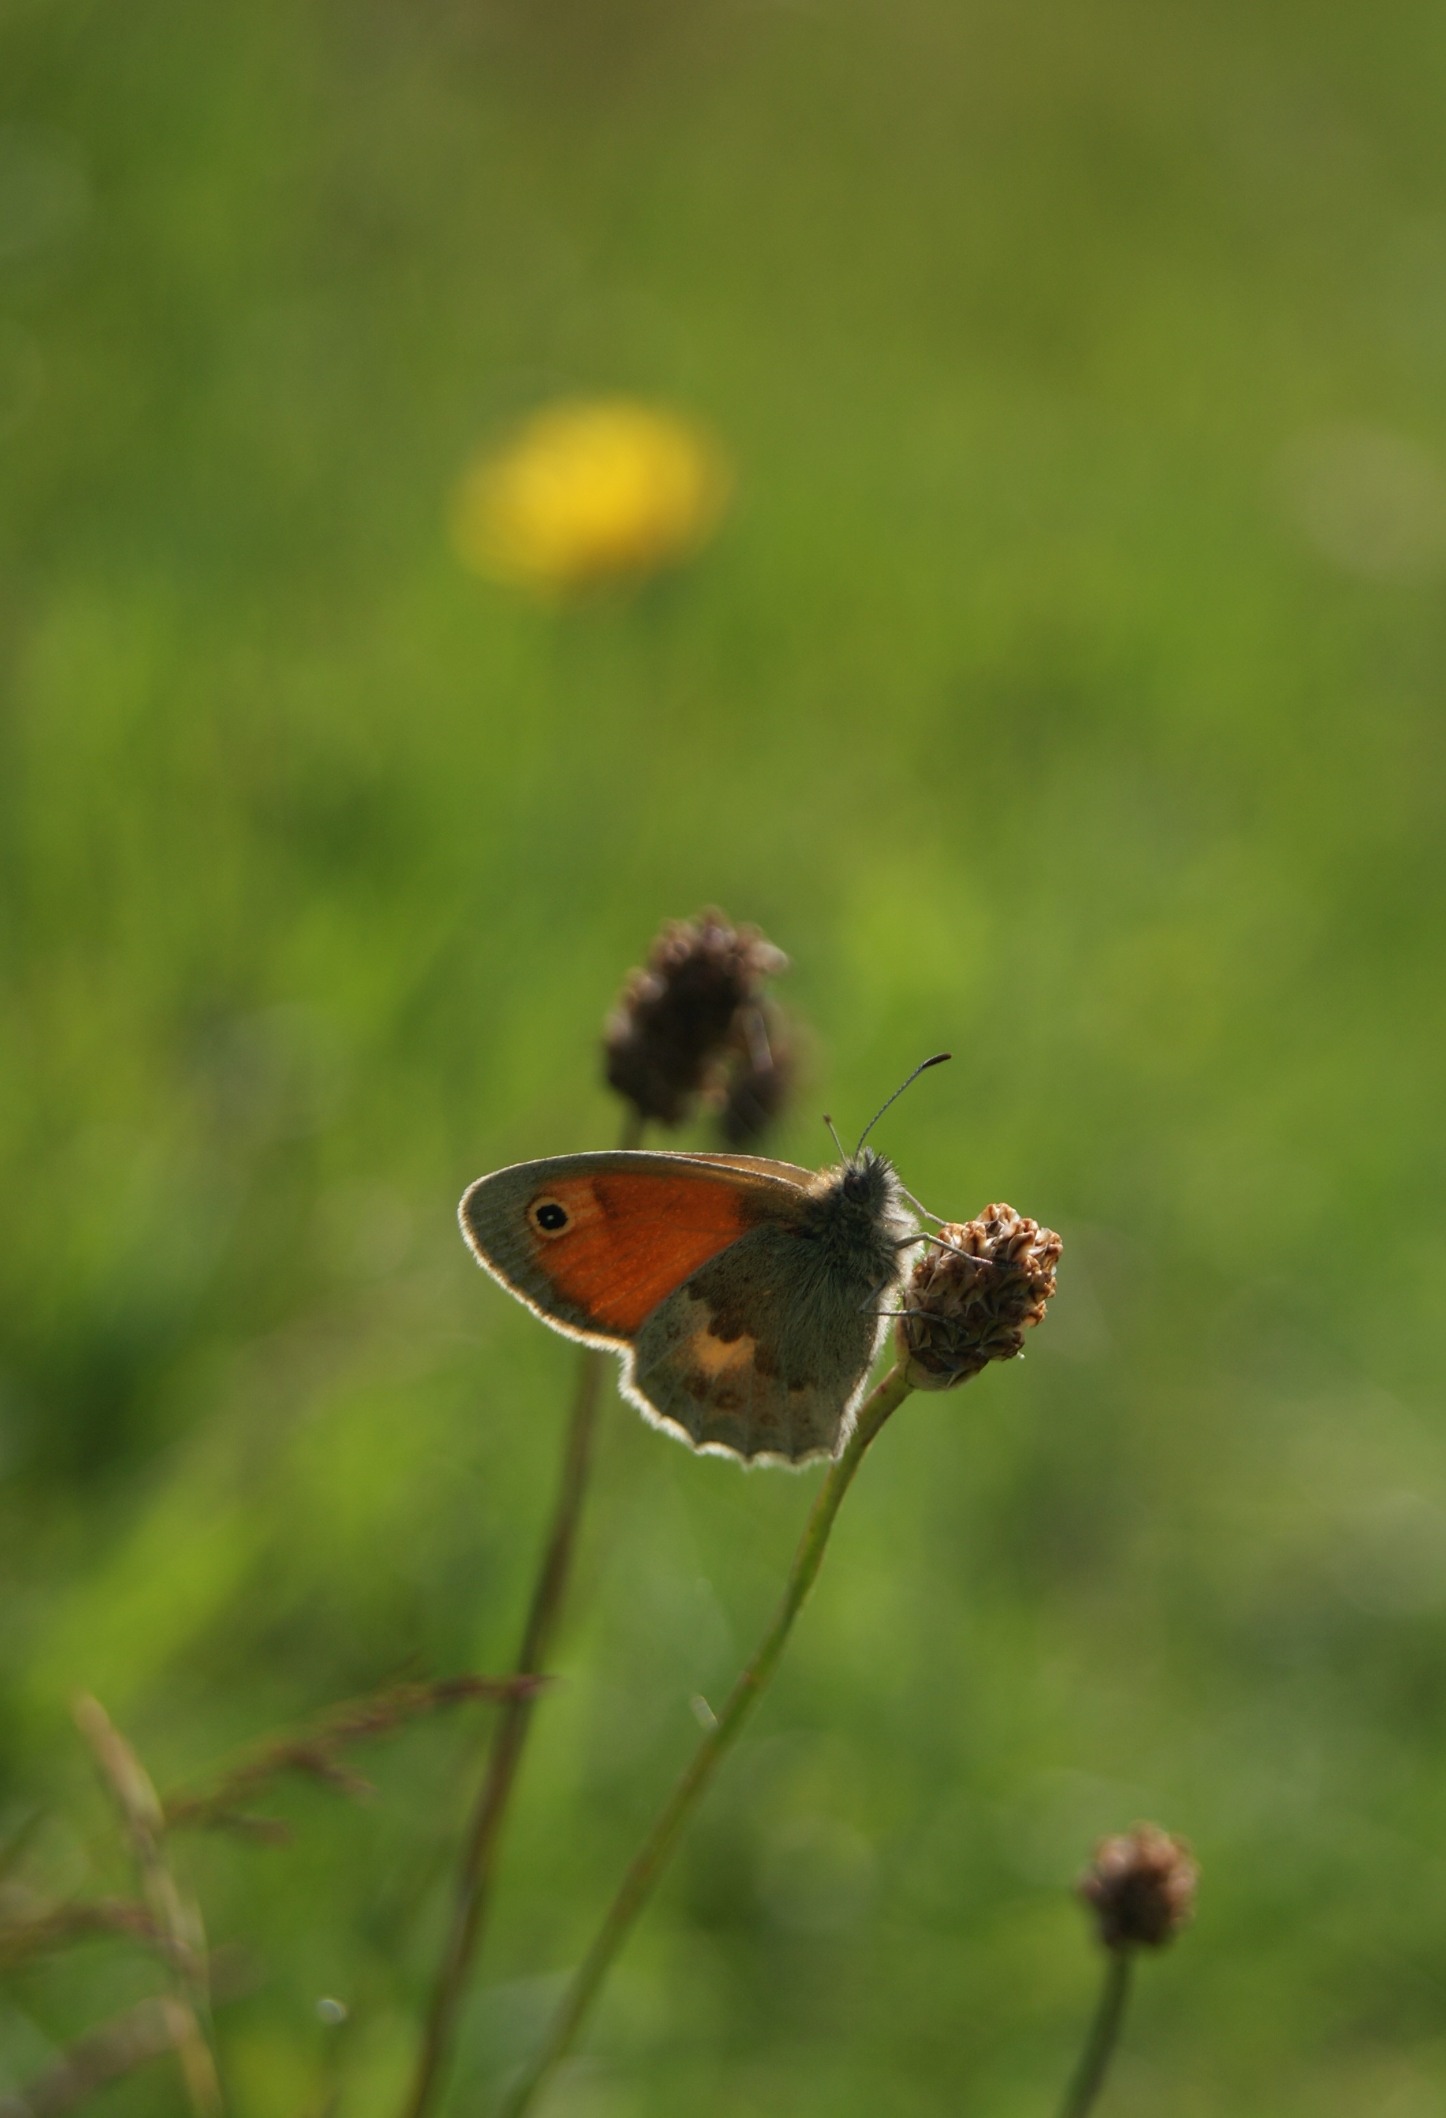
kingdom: Animalia
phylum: Arthropoda
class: Insecta
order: Lepidoptera
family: Nymphalidae
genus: Coenonympha
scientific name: Coenonympha pamphilus
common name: Okkergul randøje
